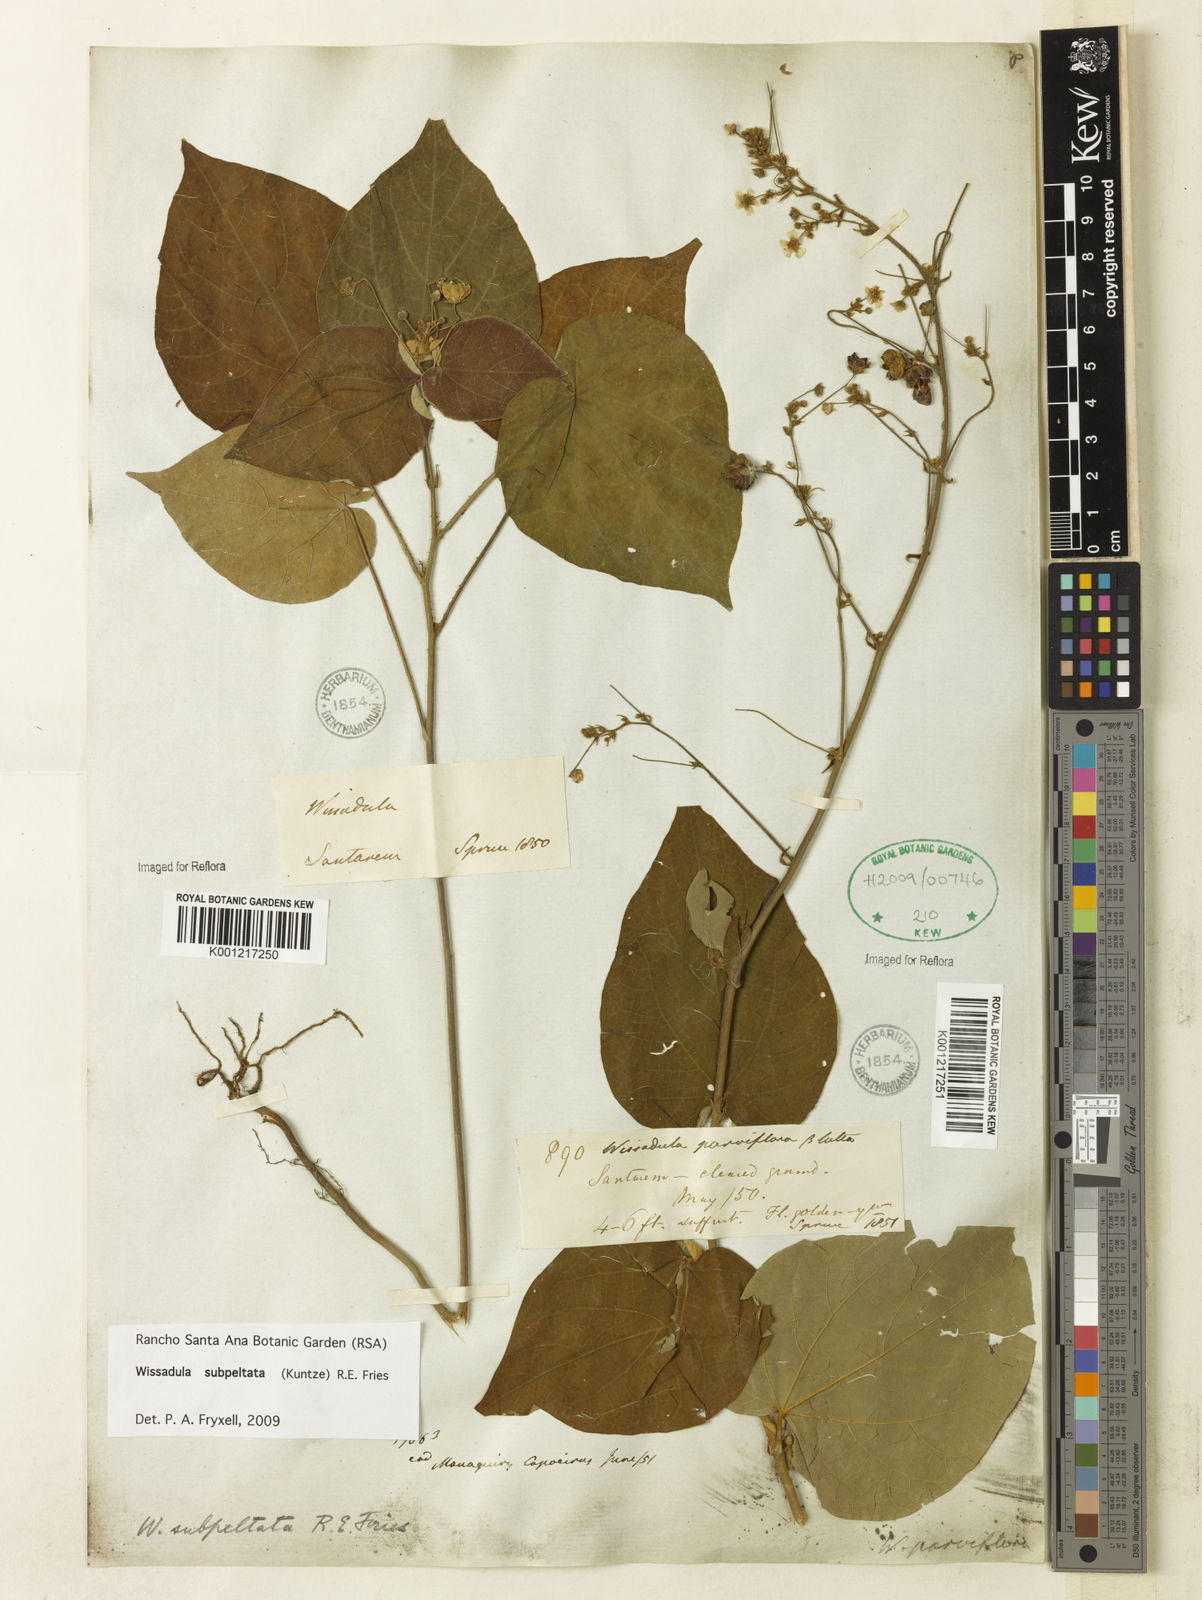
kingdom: Plantae
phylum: Tracheophyta
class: Magnoliopsida
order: Malvales
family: Malvaceae
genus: Wissadula
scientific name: Wissadula subpeltata
